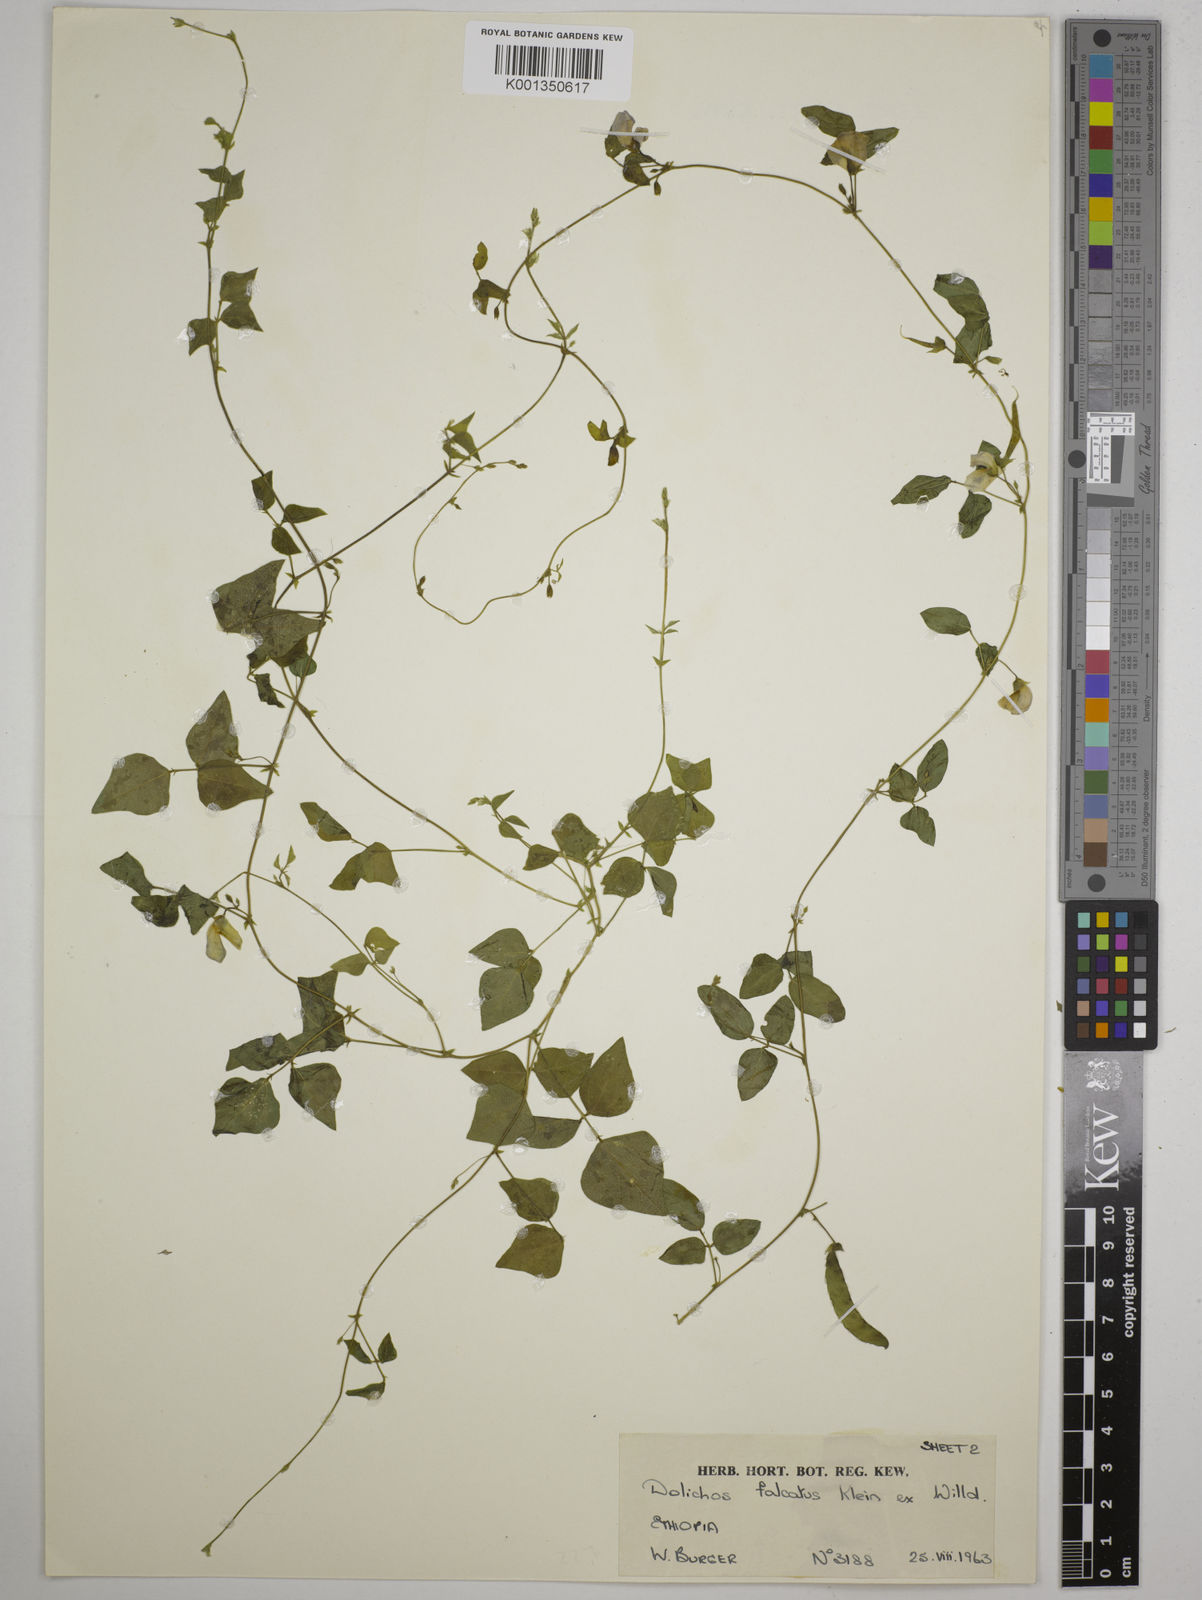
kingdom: Plantae
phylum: Tracheophyta
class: Magnoliopsida
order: Fabales
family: Fabaceae
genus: Dolichos
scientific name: Dolichos trilobus
